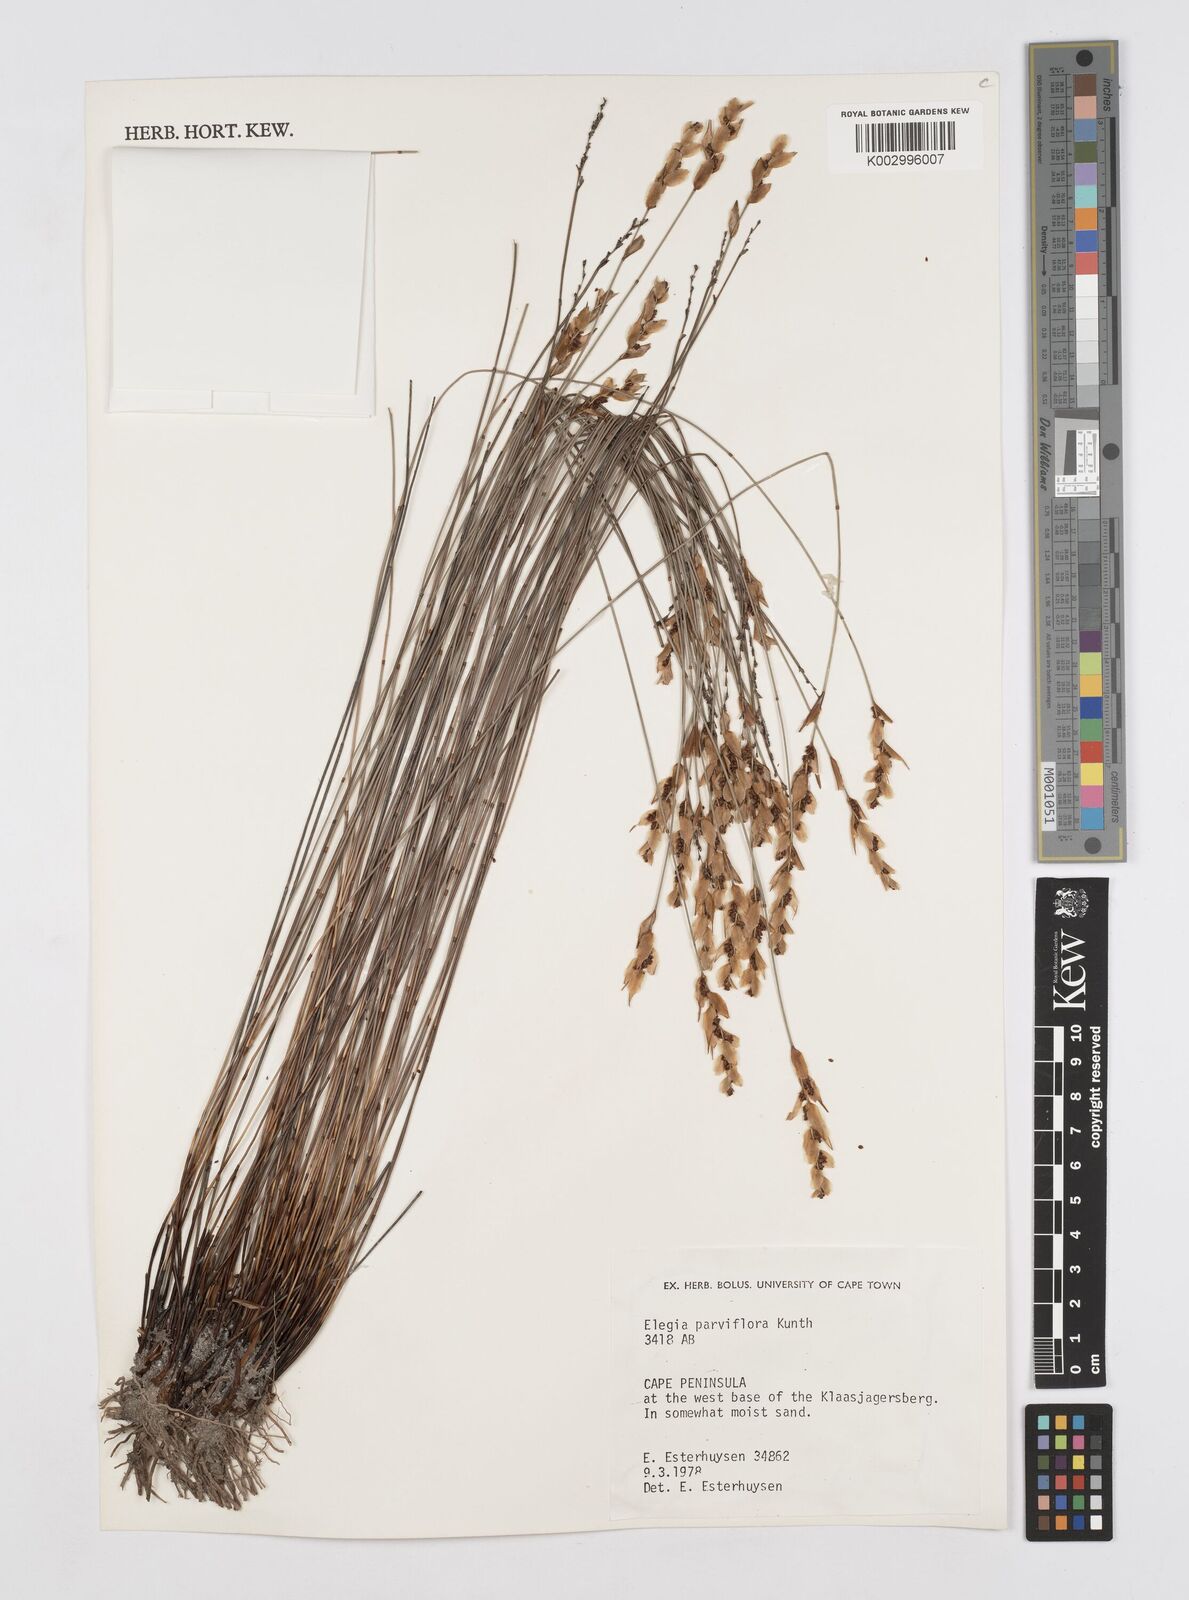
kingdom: Plantae
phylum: Tracheophyta
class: Liliopsida
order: Poales
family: Restionaceae
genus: Cannomois
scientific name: Cannomois parviflora
